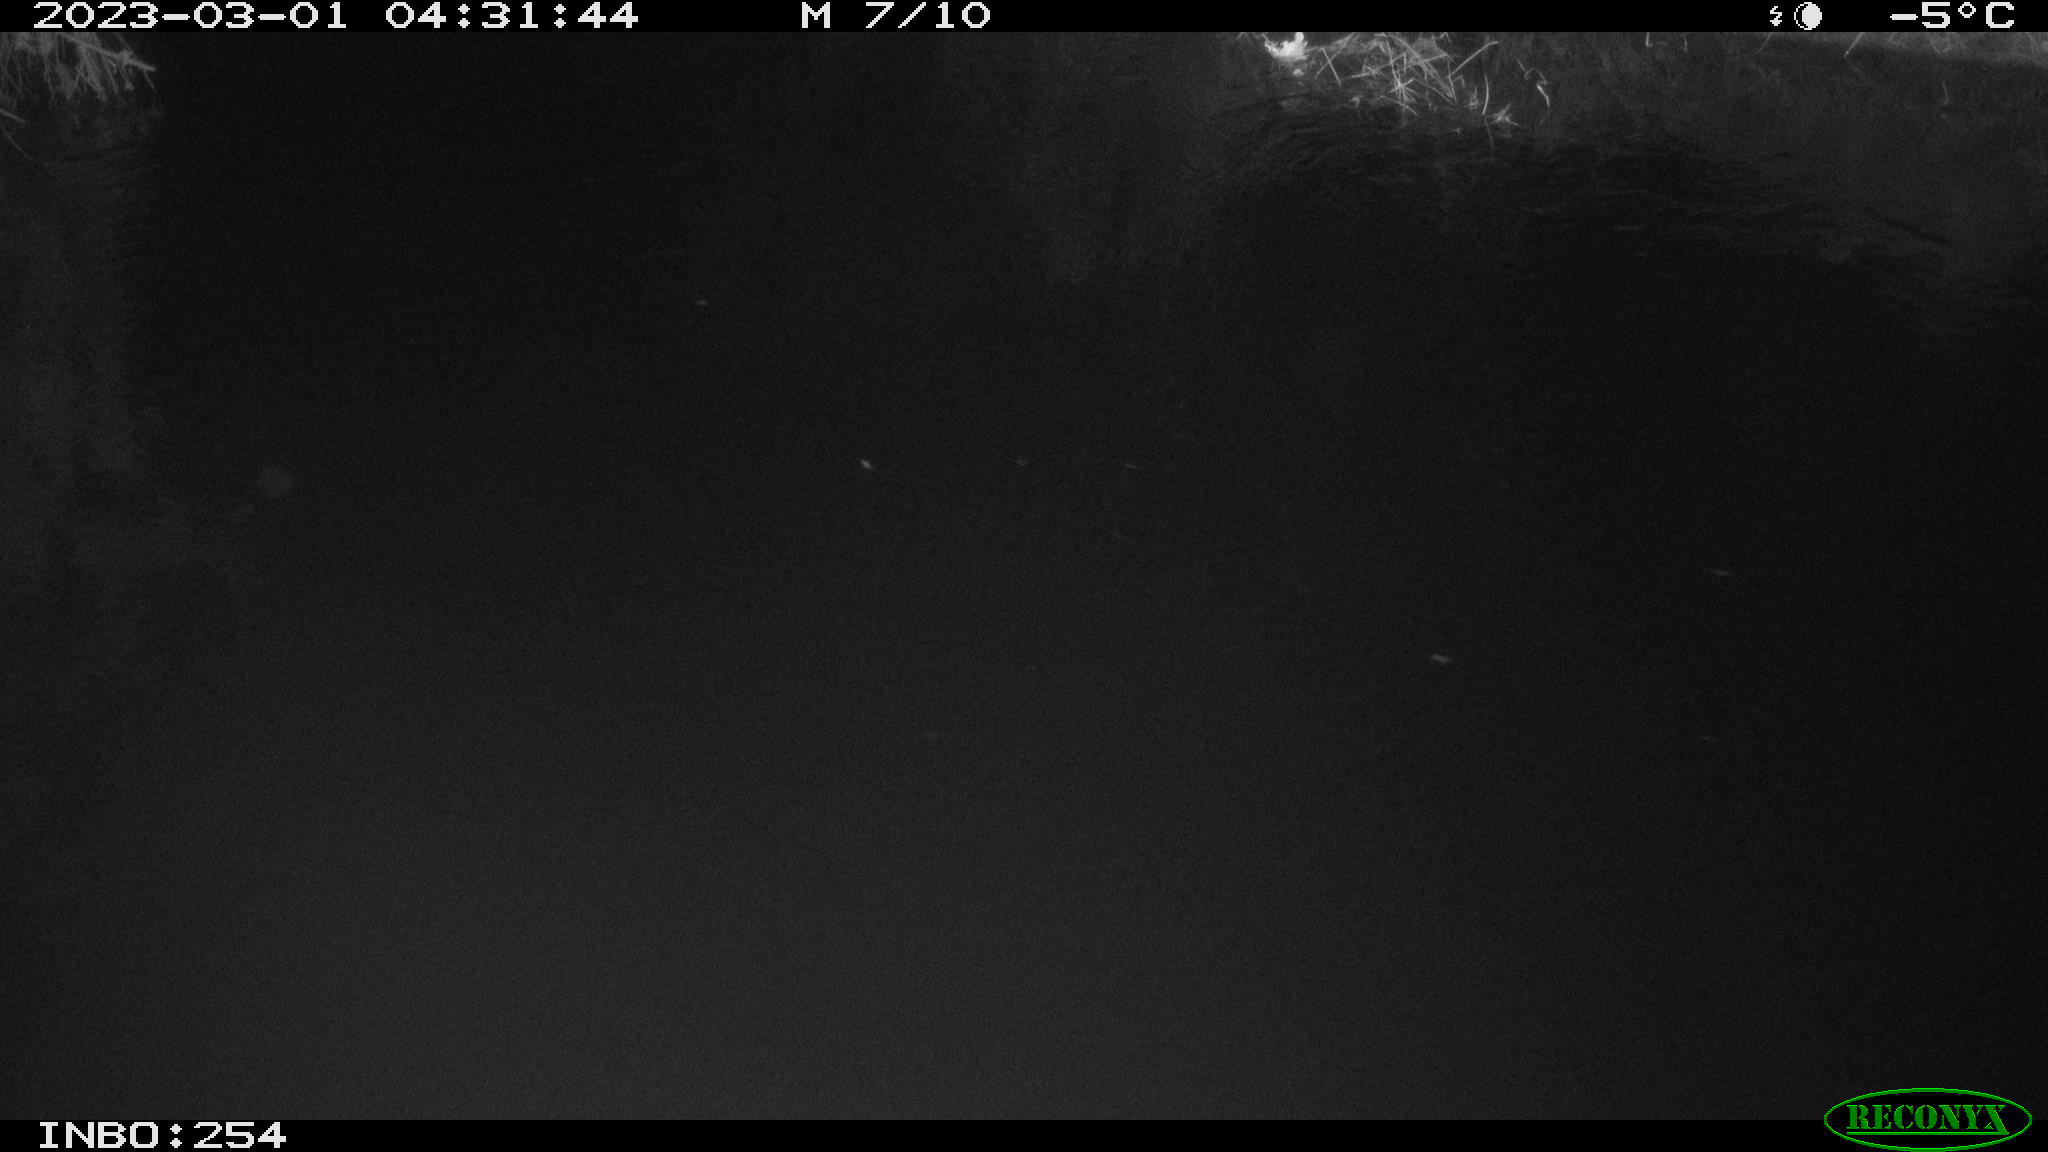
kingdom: Animalia
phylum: Chordata
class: Aves
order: Anseriformes
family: Anatidae
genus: Anas
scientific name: Anas
